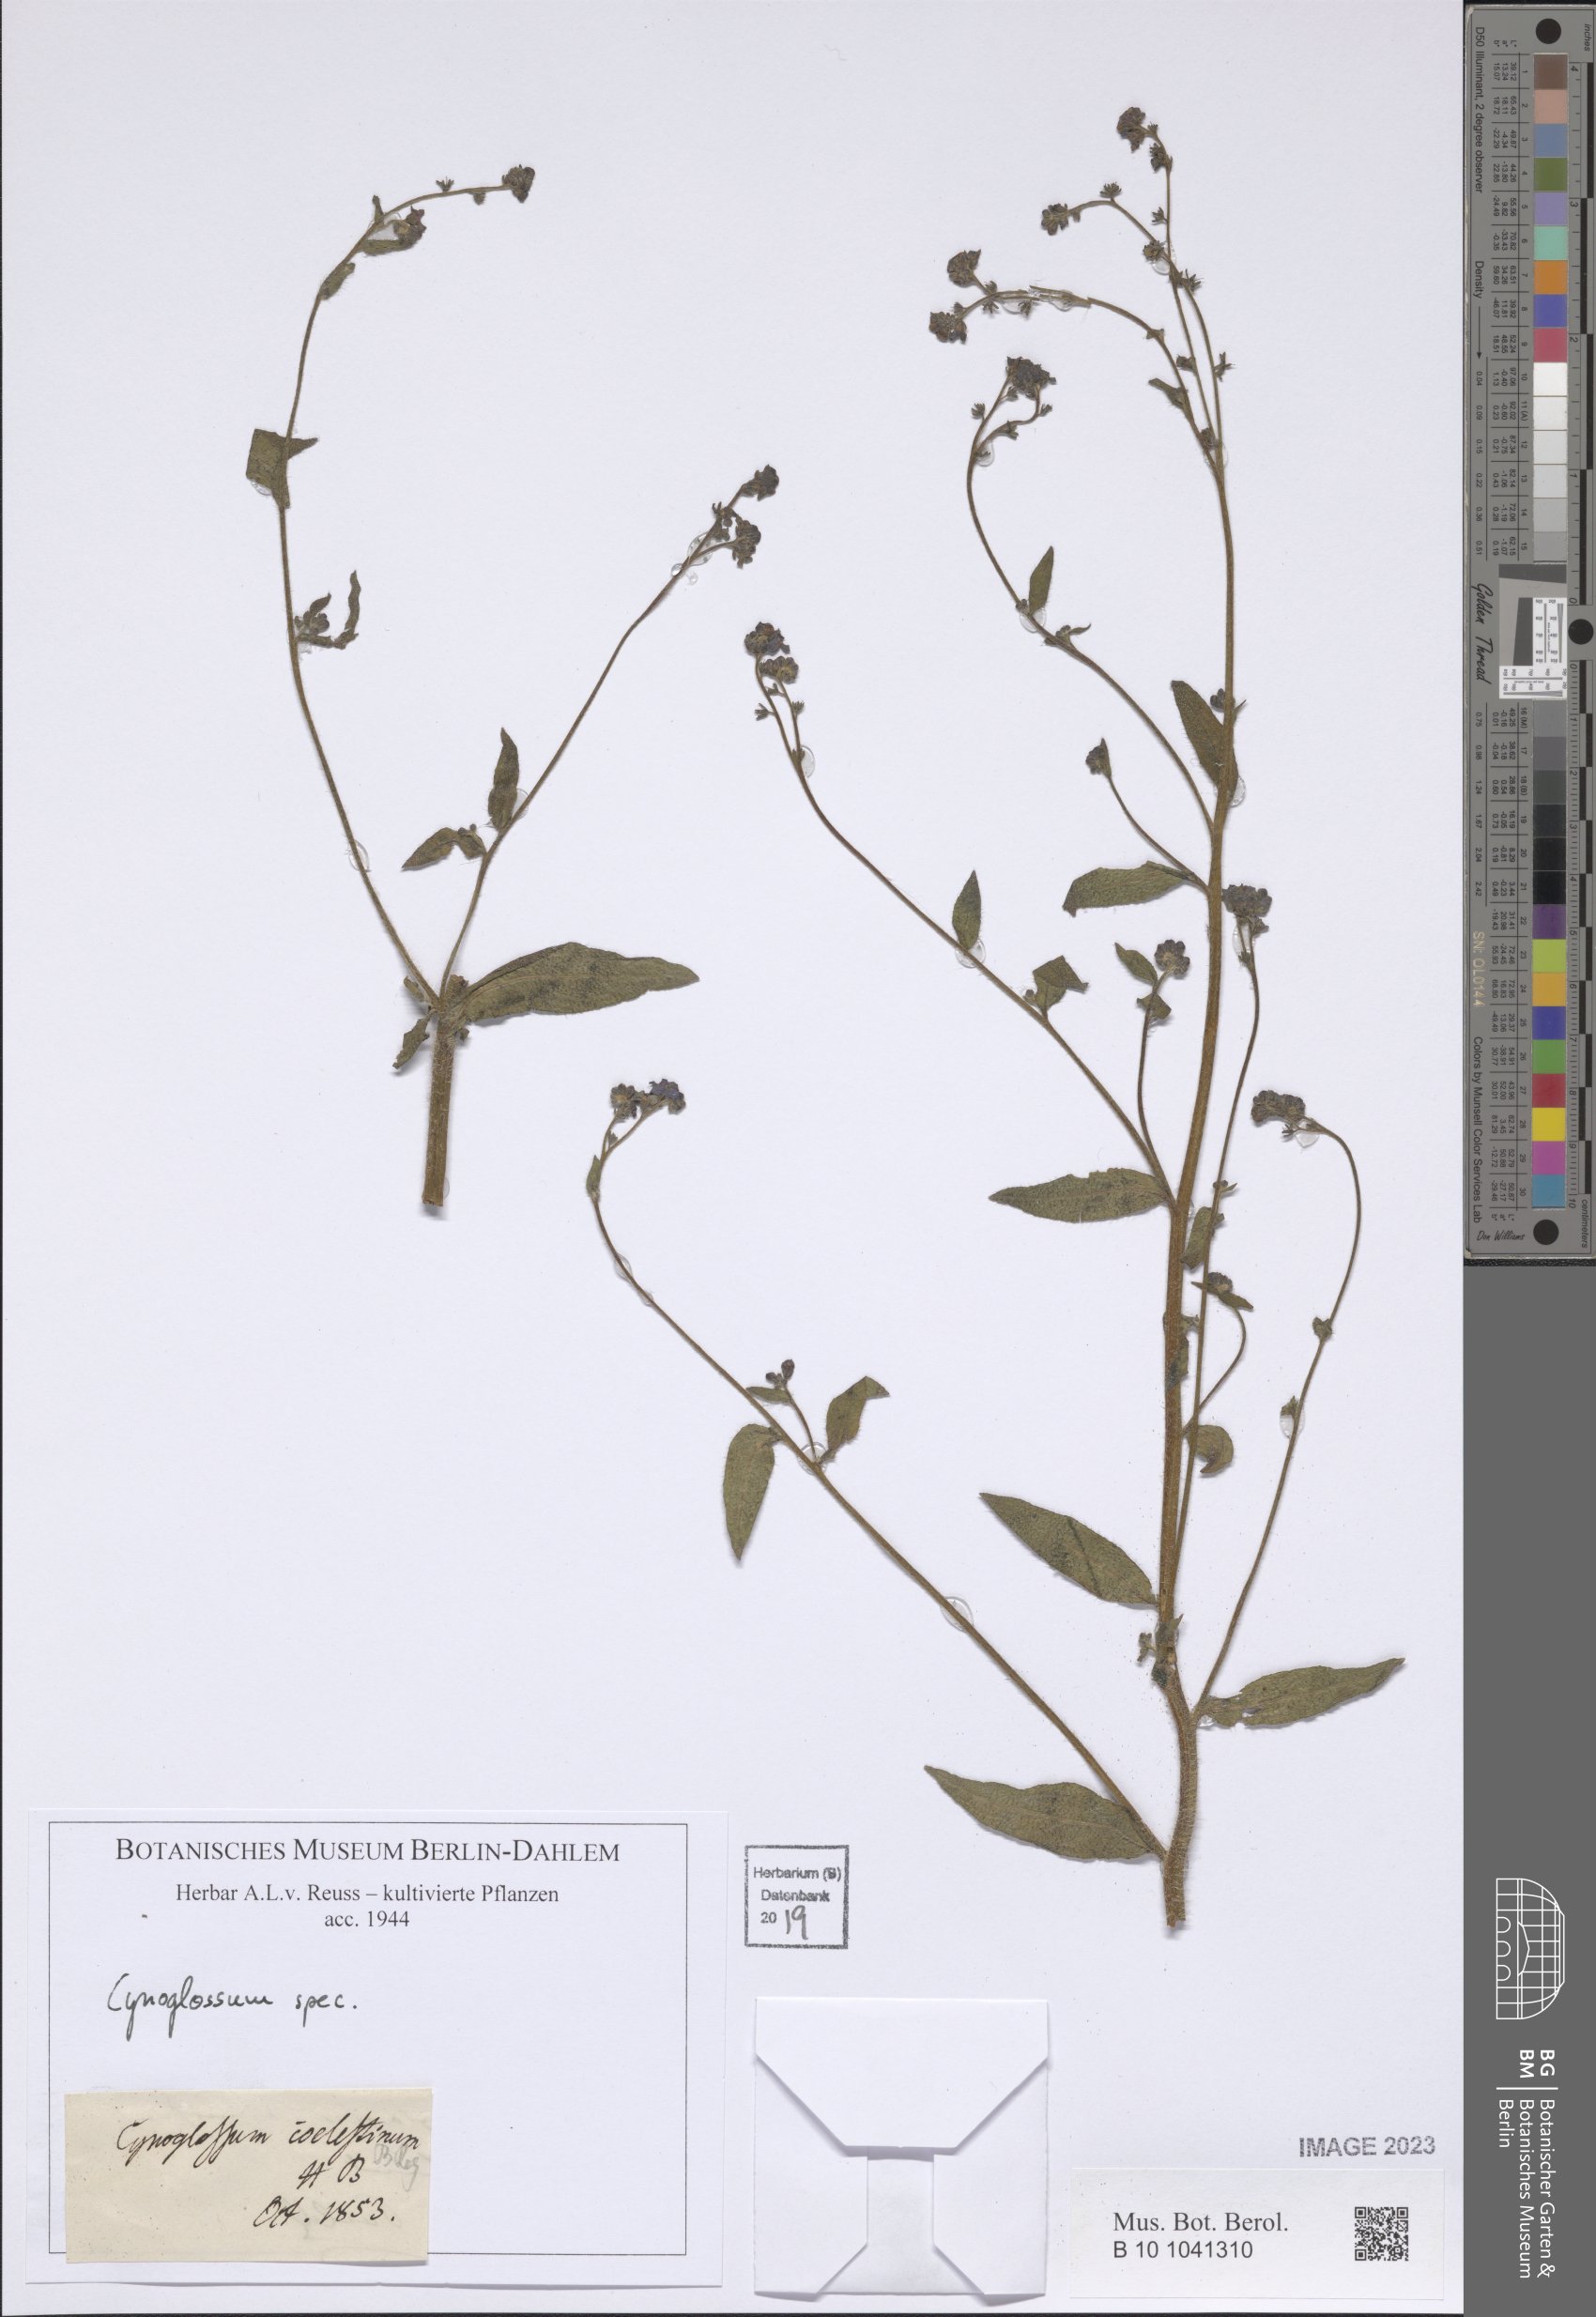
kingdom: Plantae
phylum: Tracheophyta
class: Magnoliopsida
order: Boraginales
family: Boraginaceae
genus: Cynoglossum
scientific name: Cynoglossum
